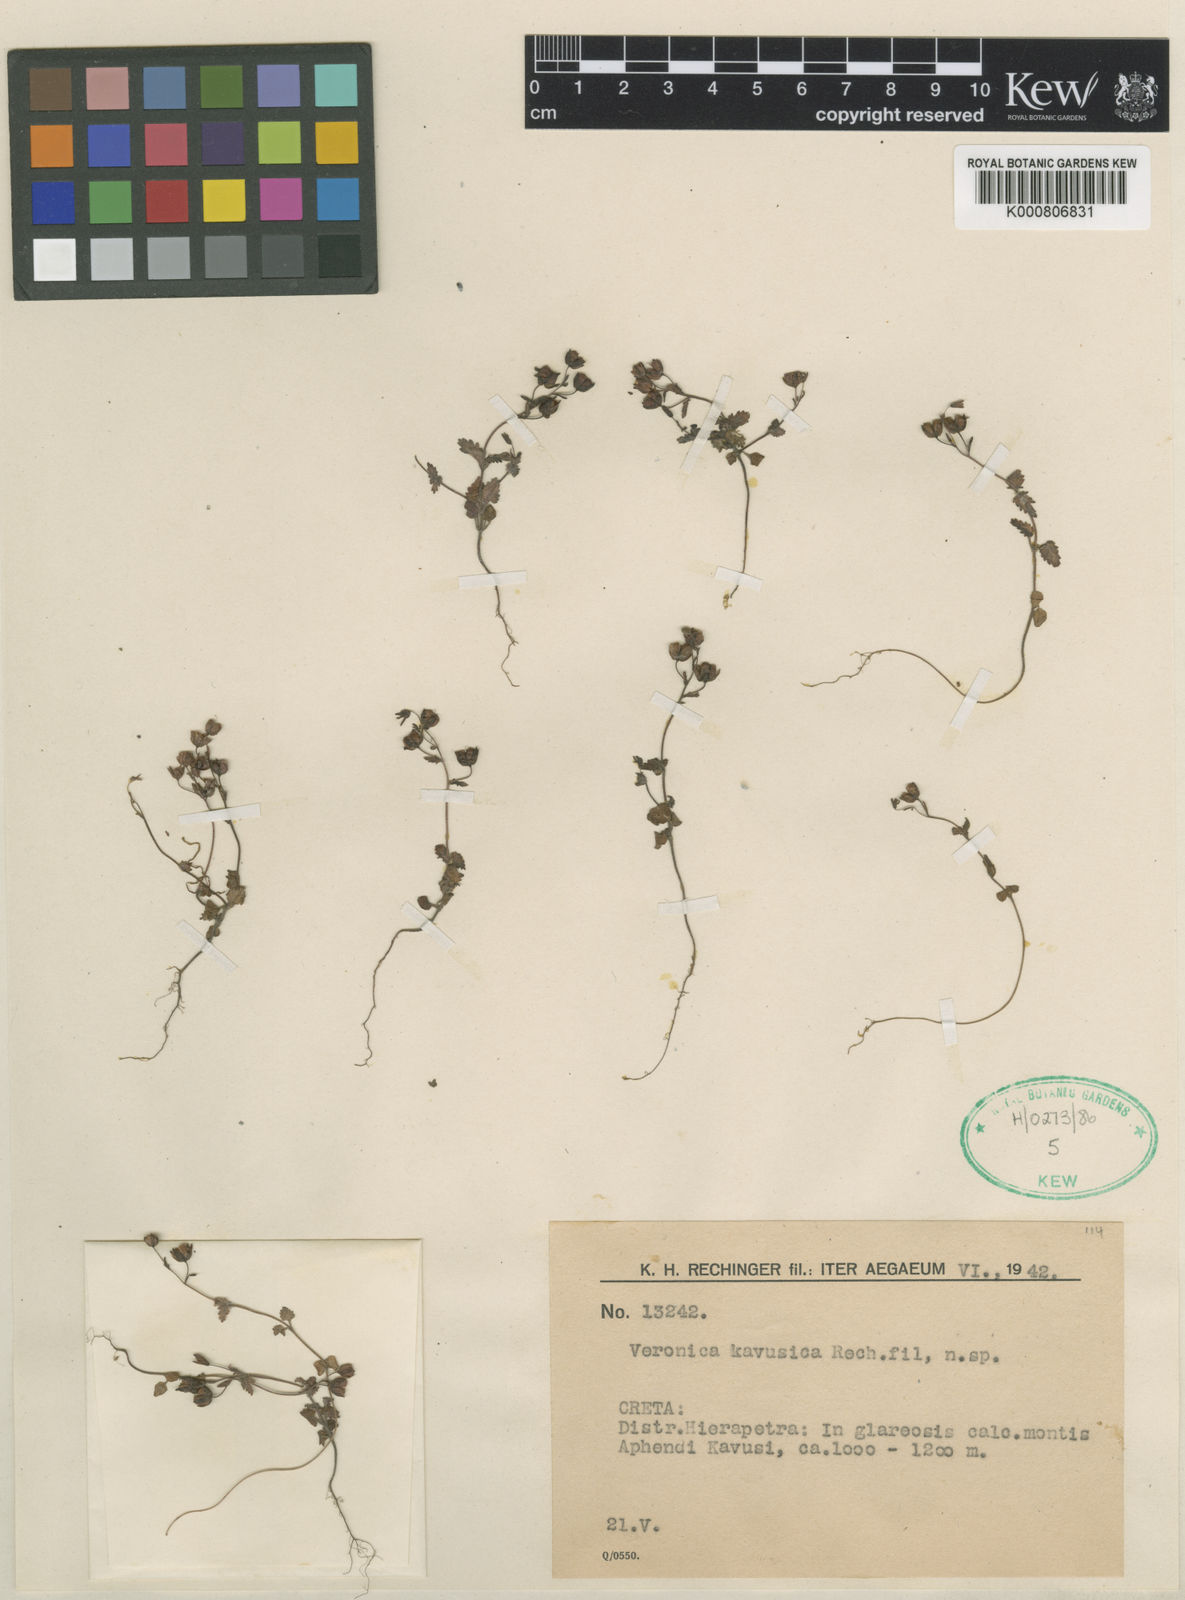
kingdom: Plantae
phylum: Tracheophyta
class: Magnoliopsida
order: Lamiales
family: Plantaginaceae
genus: Veronica
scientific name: Veronica glauca
